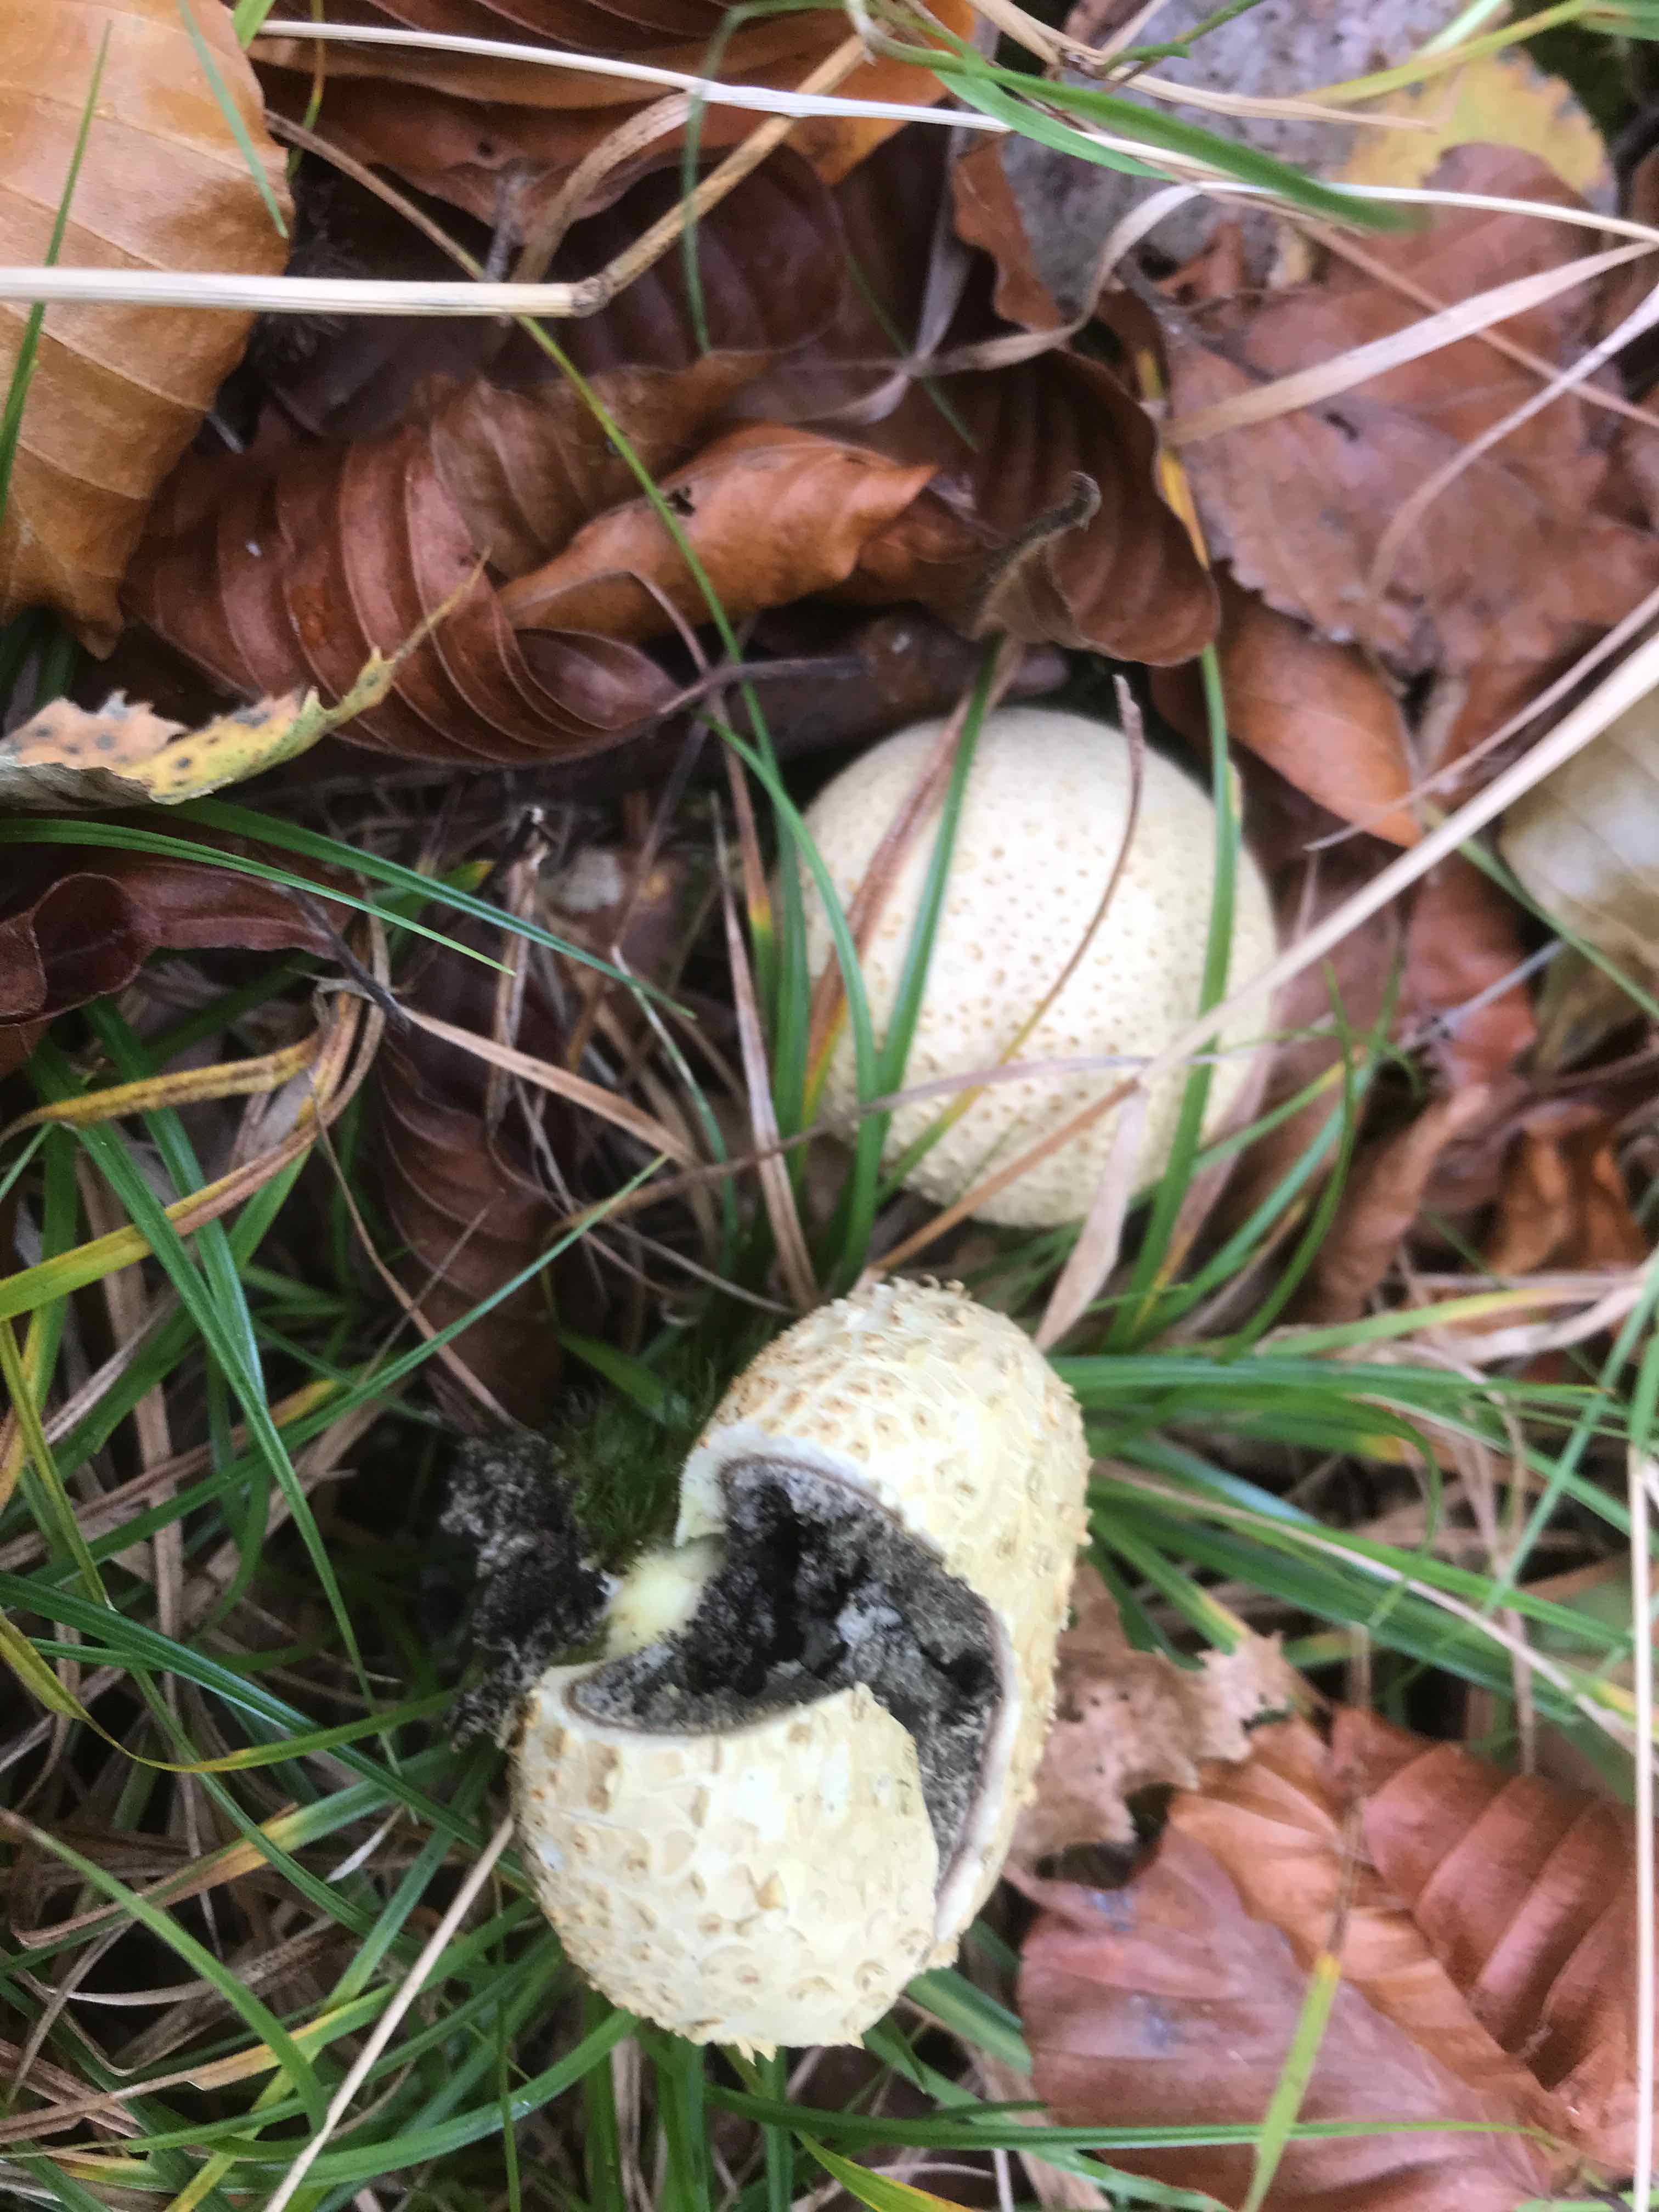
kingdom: Fungi
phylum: Basidiomycota
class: Agaricomycetes
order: Boletales
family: Sclerodermataceae
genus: Scleroderma
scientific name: Scleroderma citrinum
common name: almindelig bruskbold
